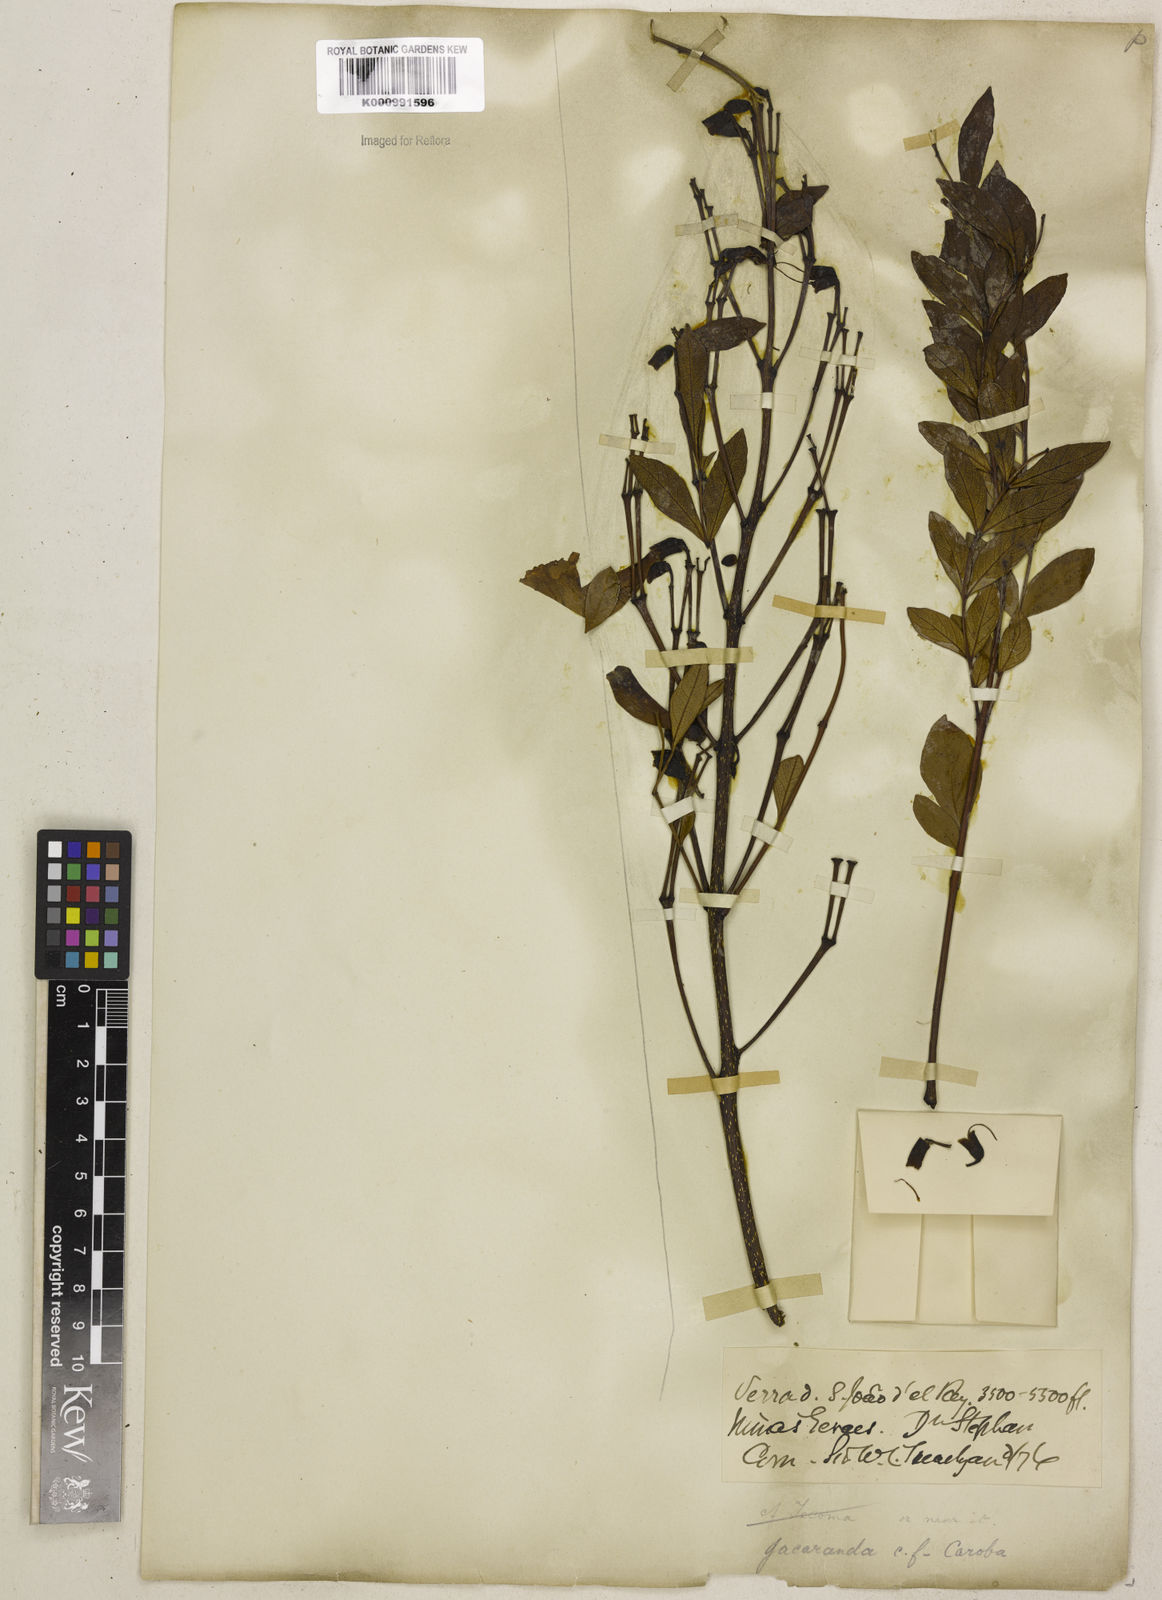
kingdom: Plantae
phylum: Tracheophyta
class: Magnoliopsida
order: Lamiales
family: Bignoniaceae
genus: Jacaranda
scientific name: Jacaranda caroba
